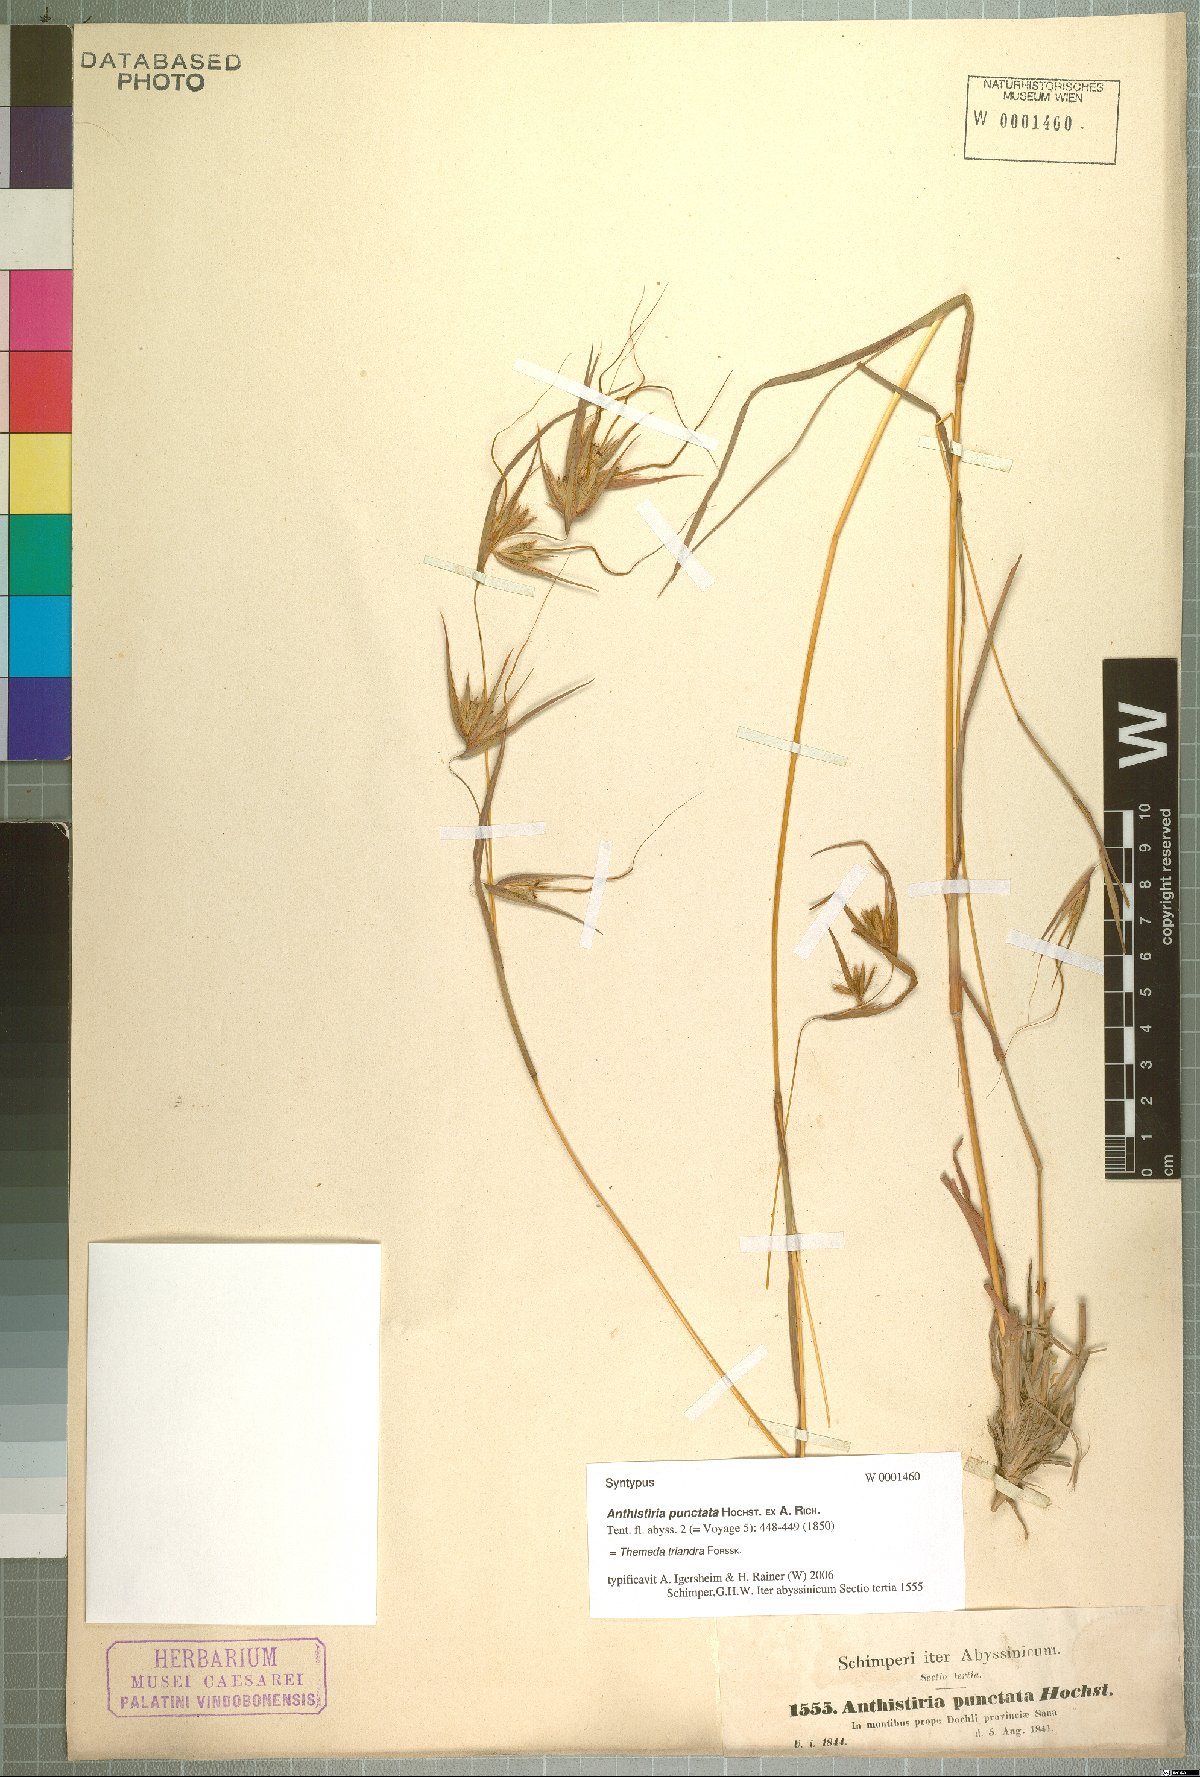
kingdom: Plantae
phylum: Tracheophyta
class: Liliopsida
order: Poales
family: Poaceae
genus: Themeda
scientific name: Themeda triandra
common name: Kangaroo grass
